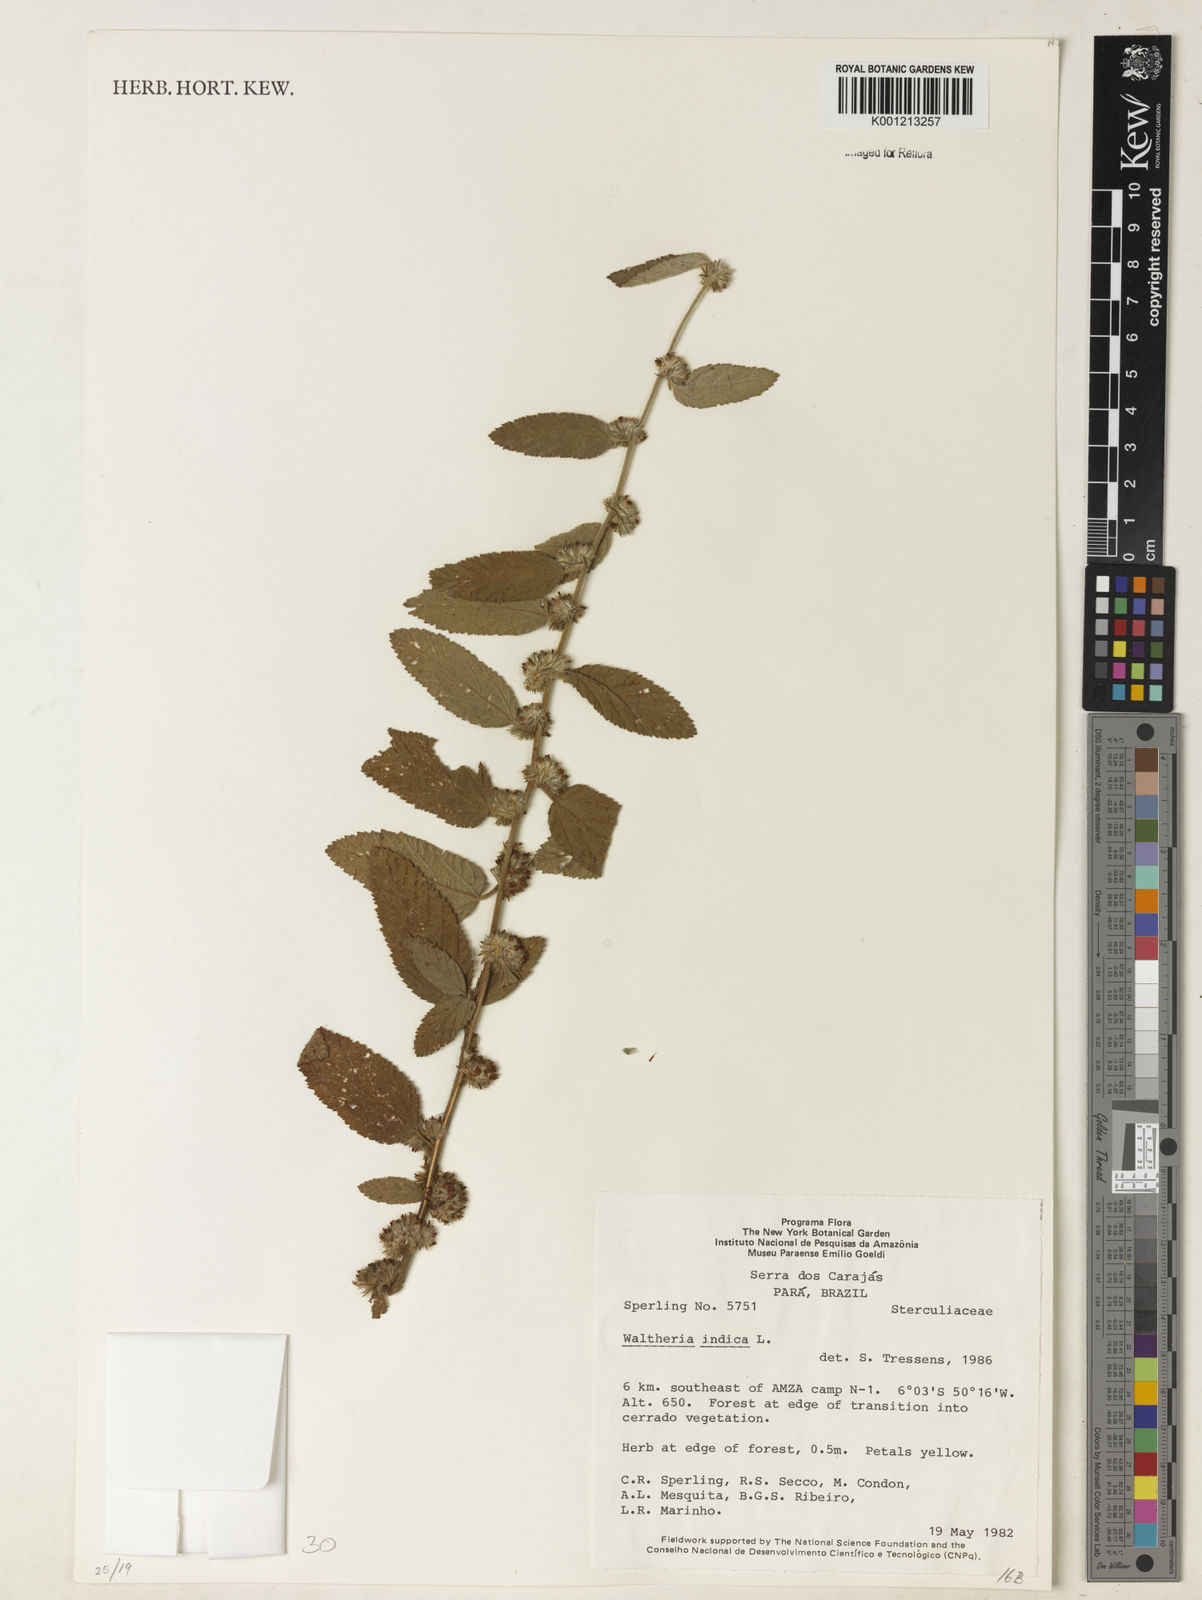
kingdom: Plantae
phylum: Tracheophyta
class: Magnoliopsida
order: Malvales
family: Malvaceae
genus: Waltheria
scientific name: Waltheria indica
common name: Leather-coat
